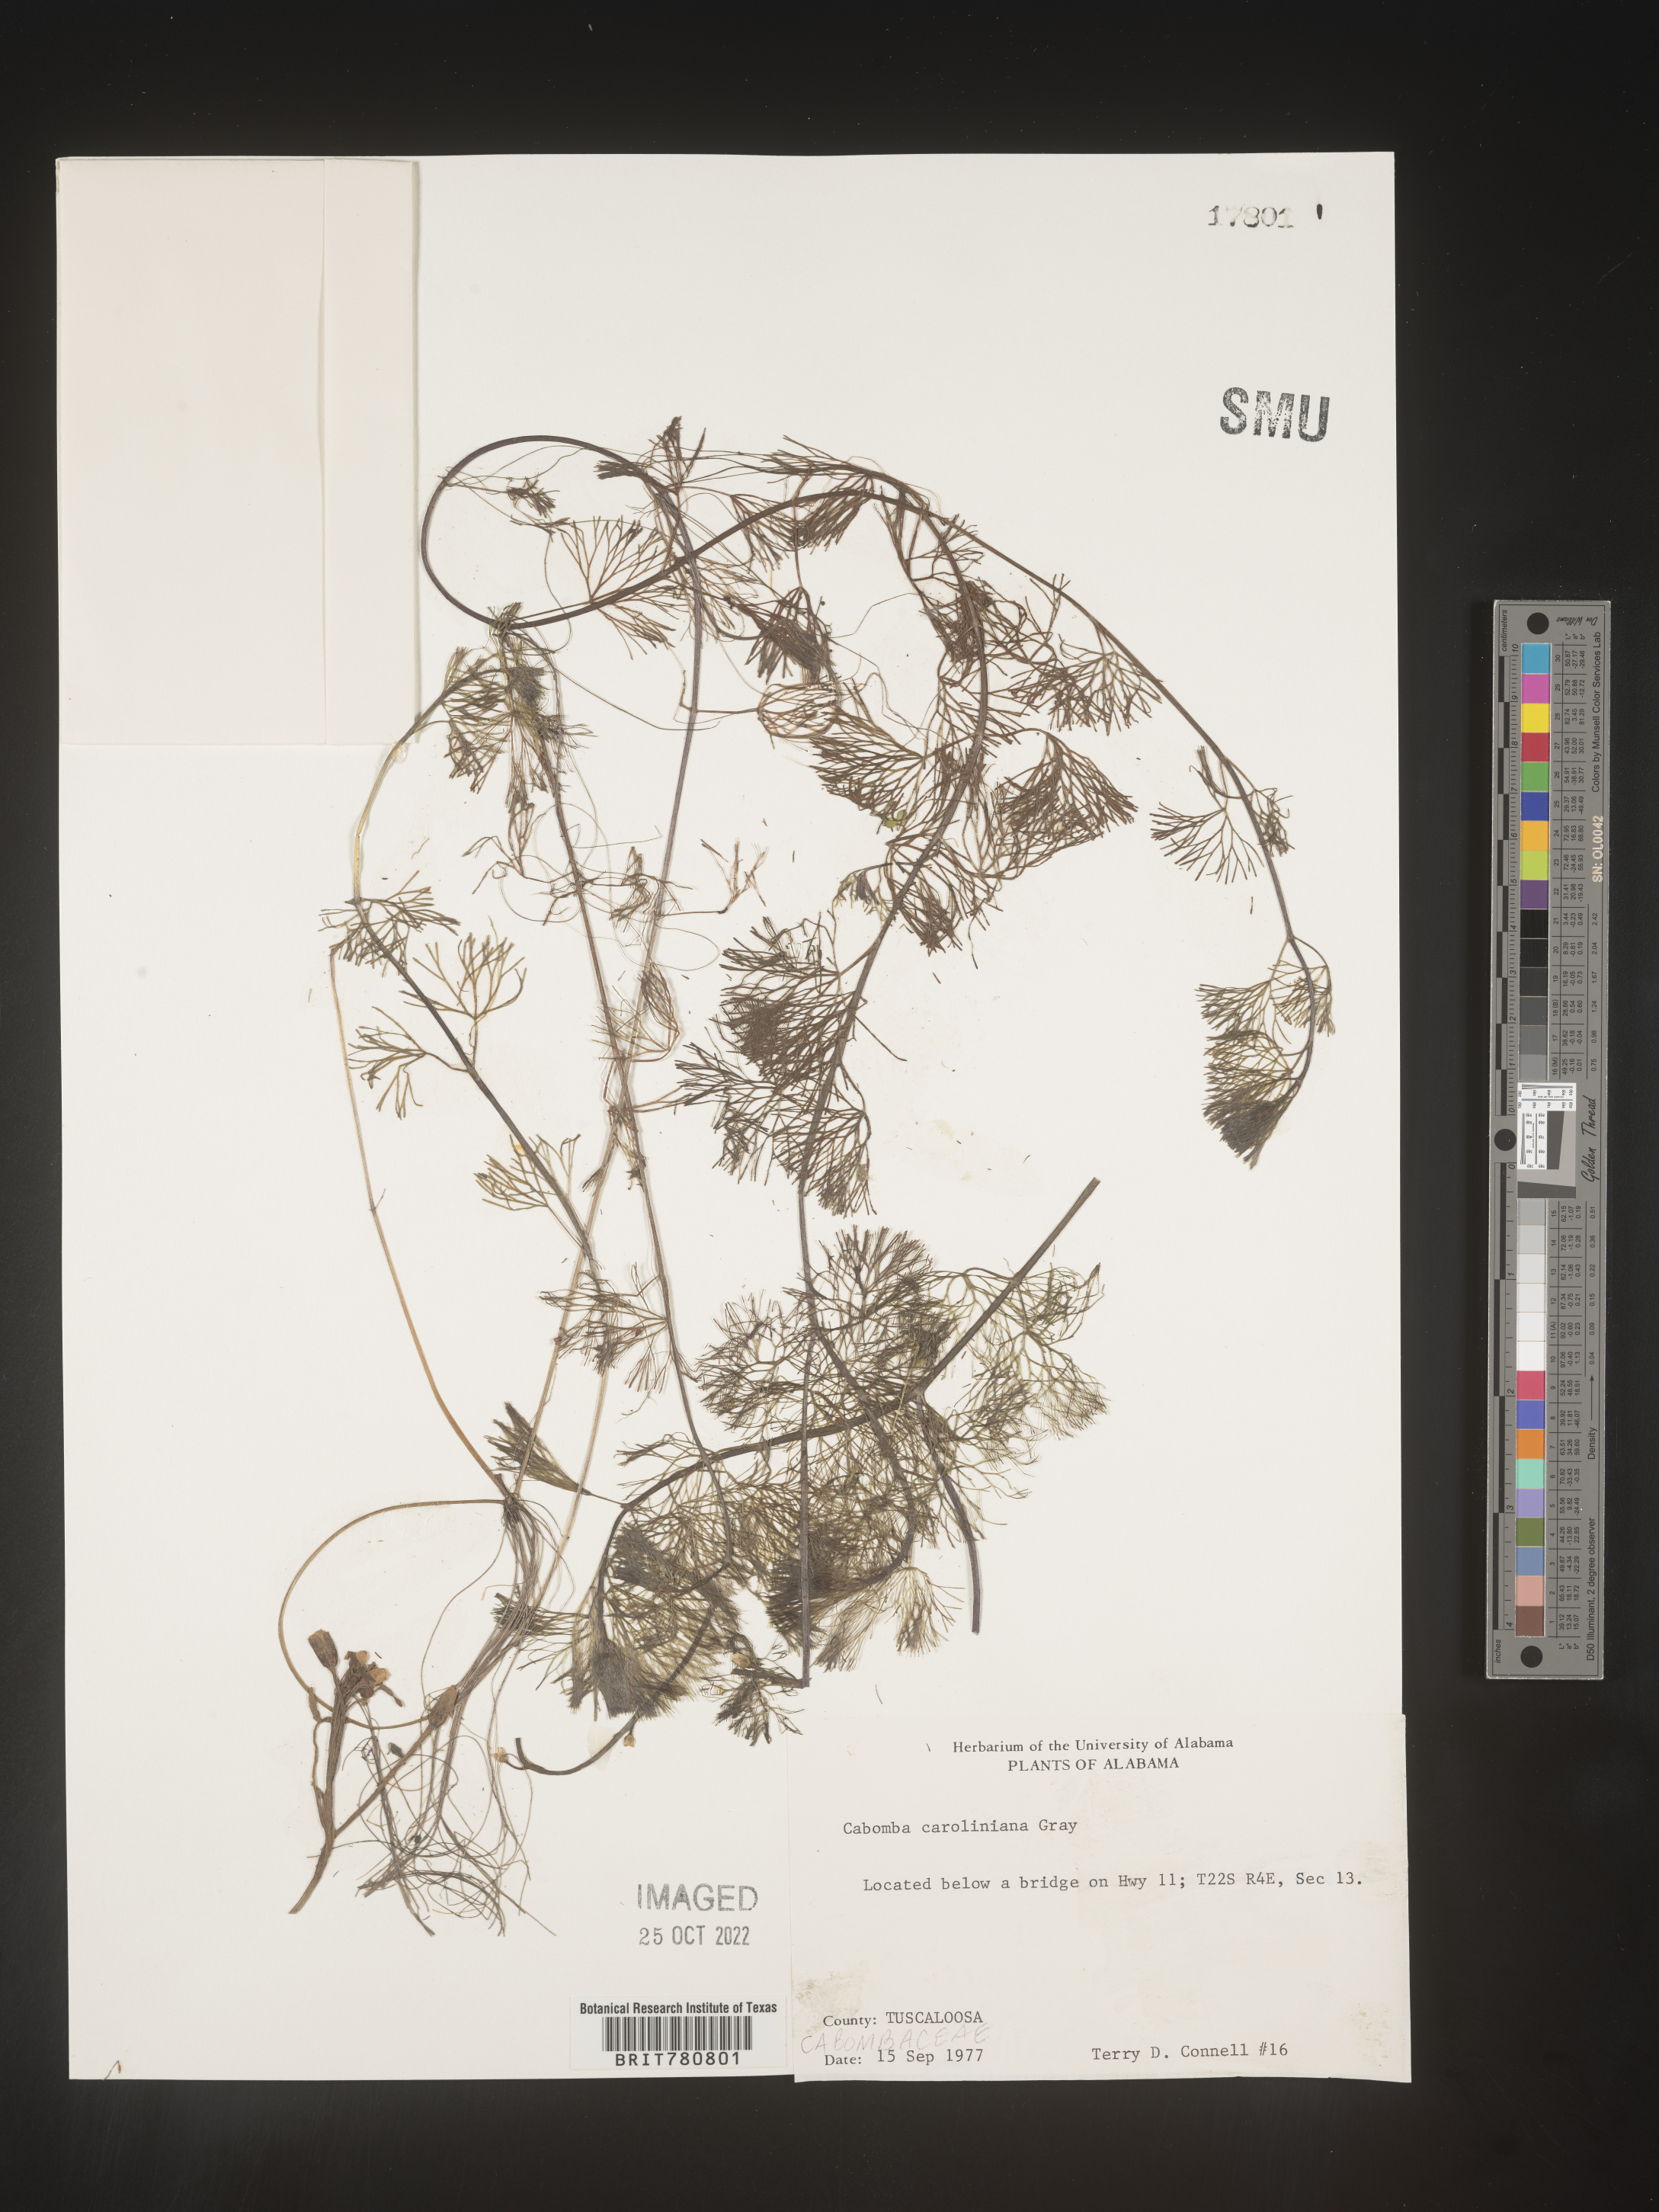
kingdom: Plantae
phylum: Tracheophyta
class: Magnoliopsida
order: Nymphaeales
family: Cabombaceae
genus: Cabomba
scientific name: Cabomba
